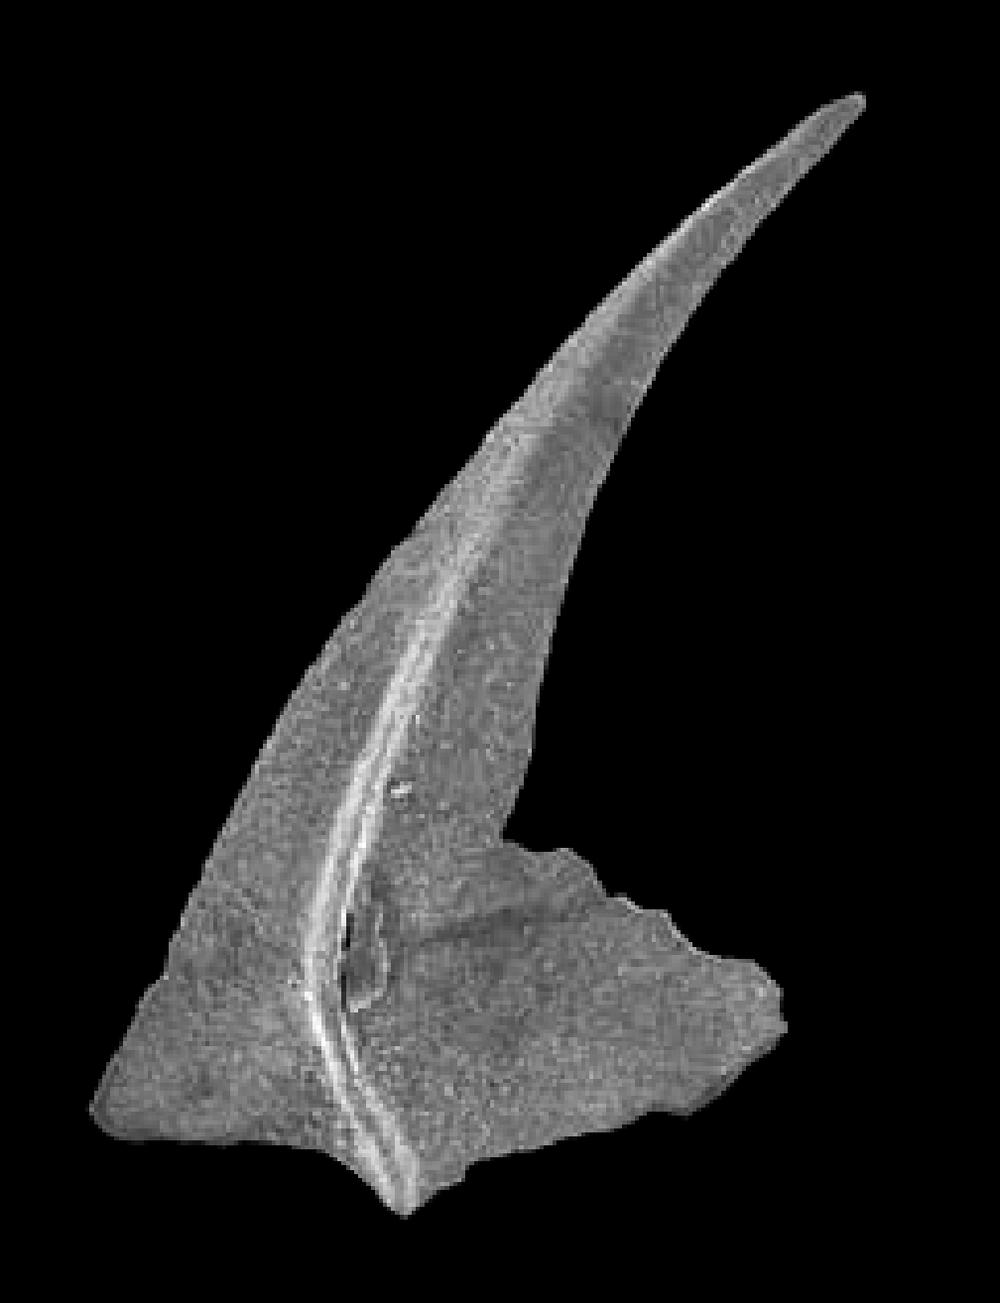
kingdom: Animalia
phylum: Chordata
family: Oistodontidae
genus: Oistodus
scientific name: Oistodus lanceolatus
